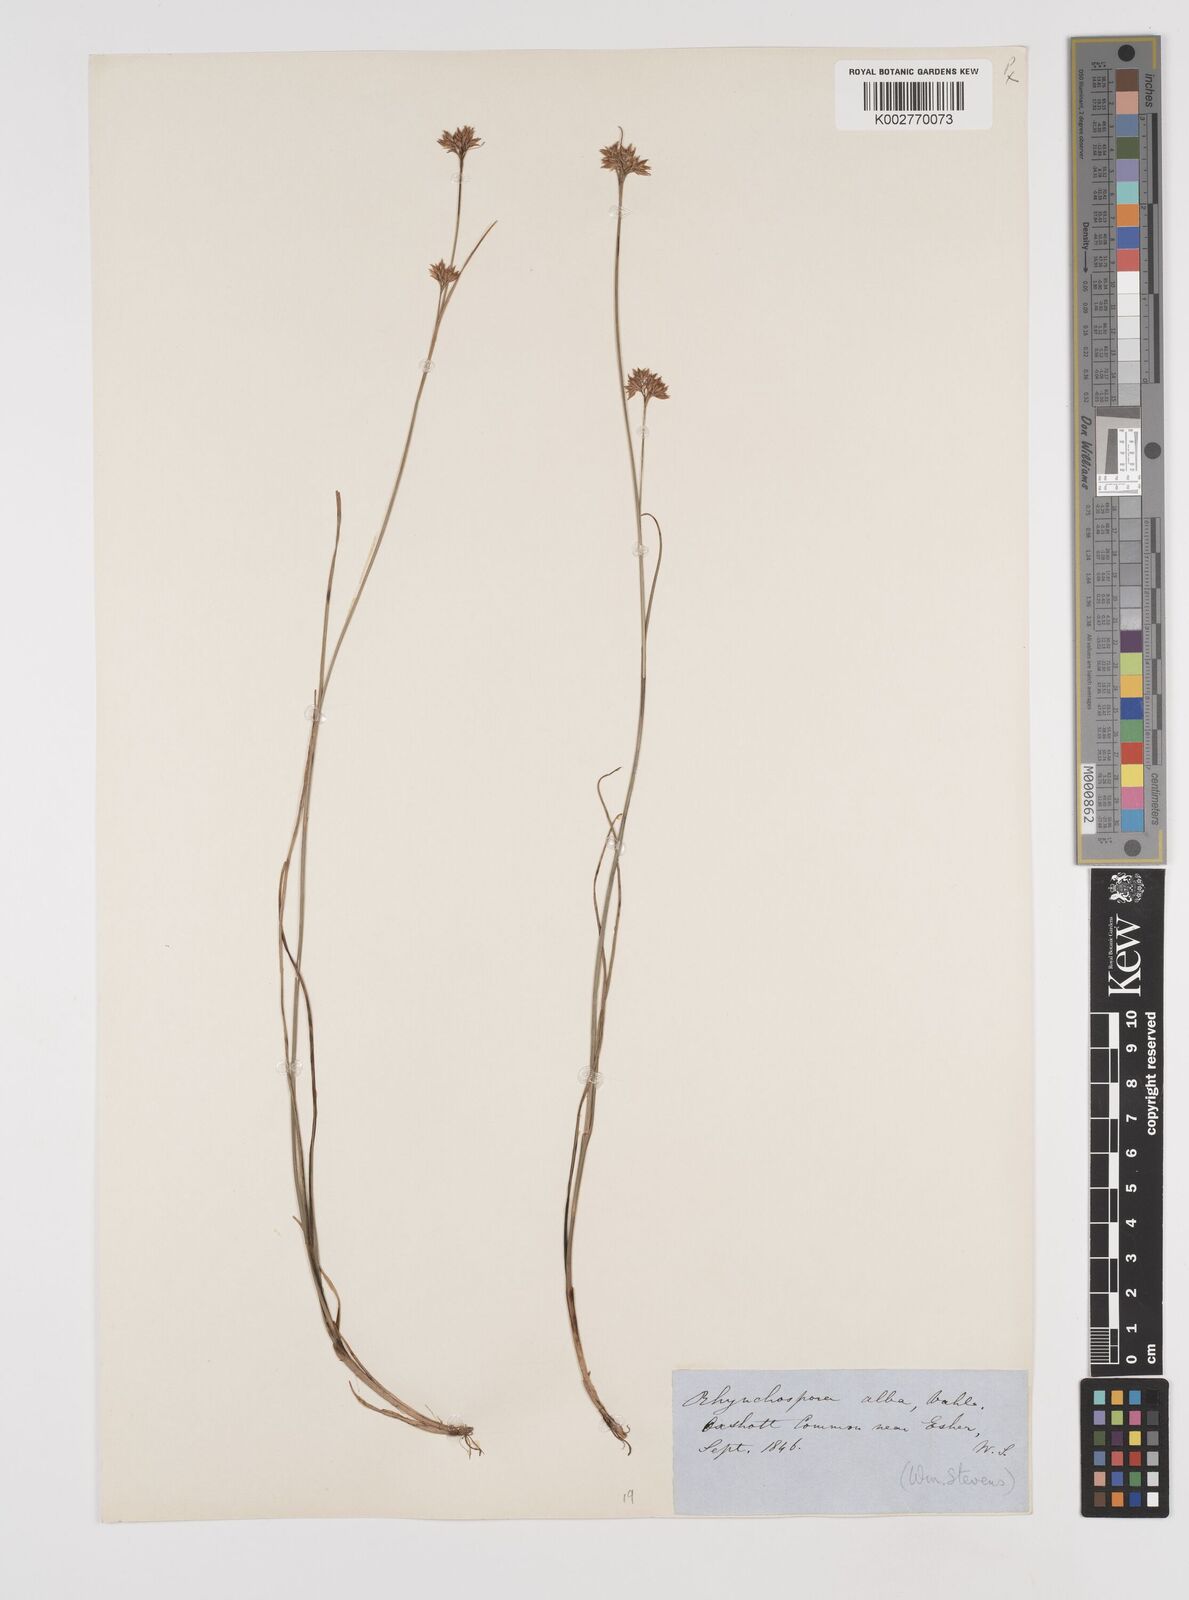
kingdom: Plantae
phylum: Tracheophyta
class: Liliopsida
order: Poales
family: Cyperaceae
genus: Rhynchospora
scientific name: Rhynchospora alba
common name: White beak-sedge
